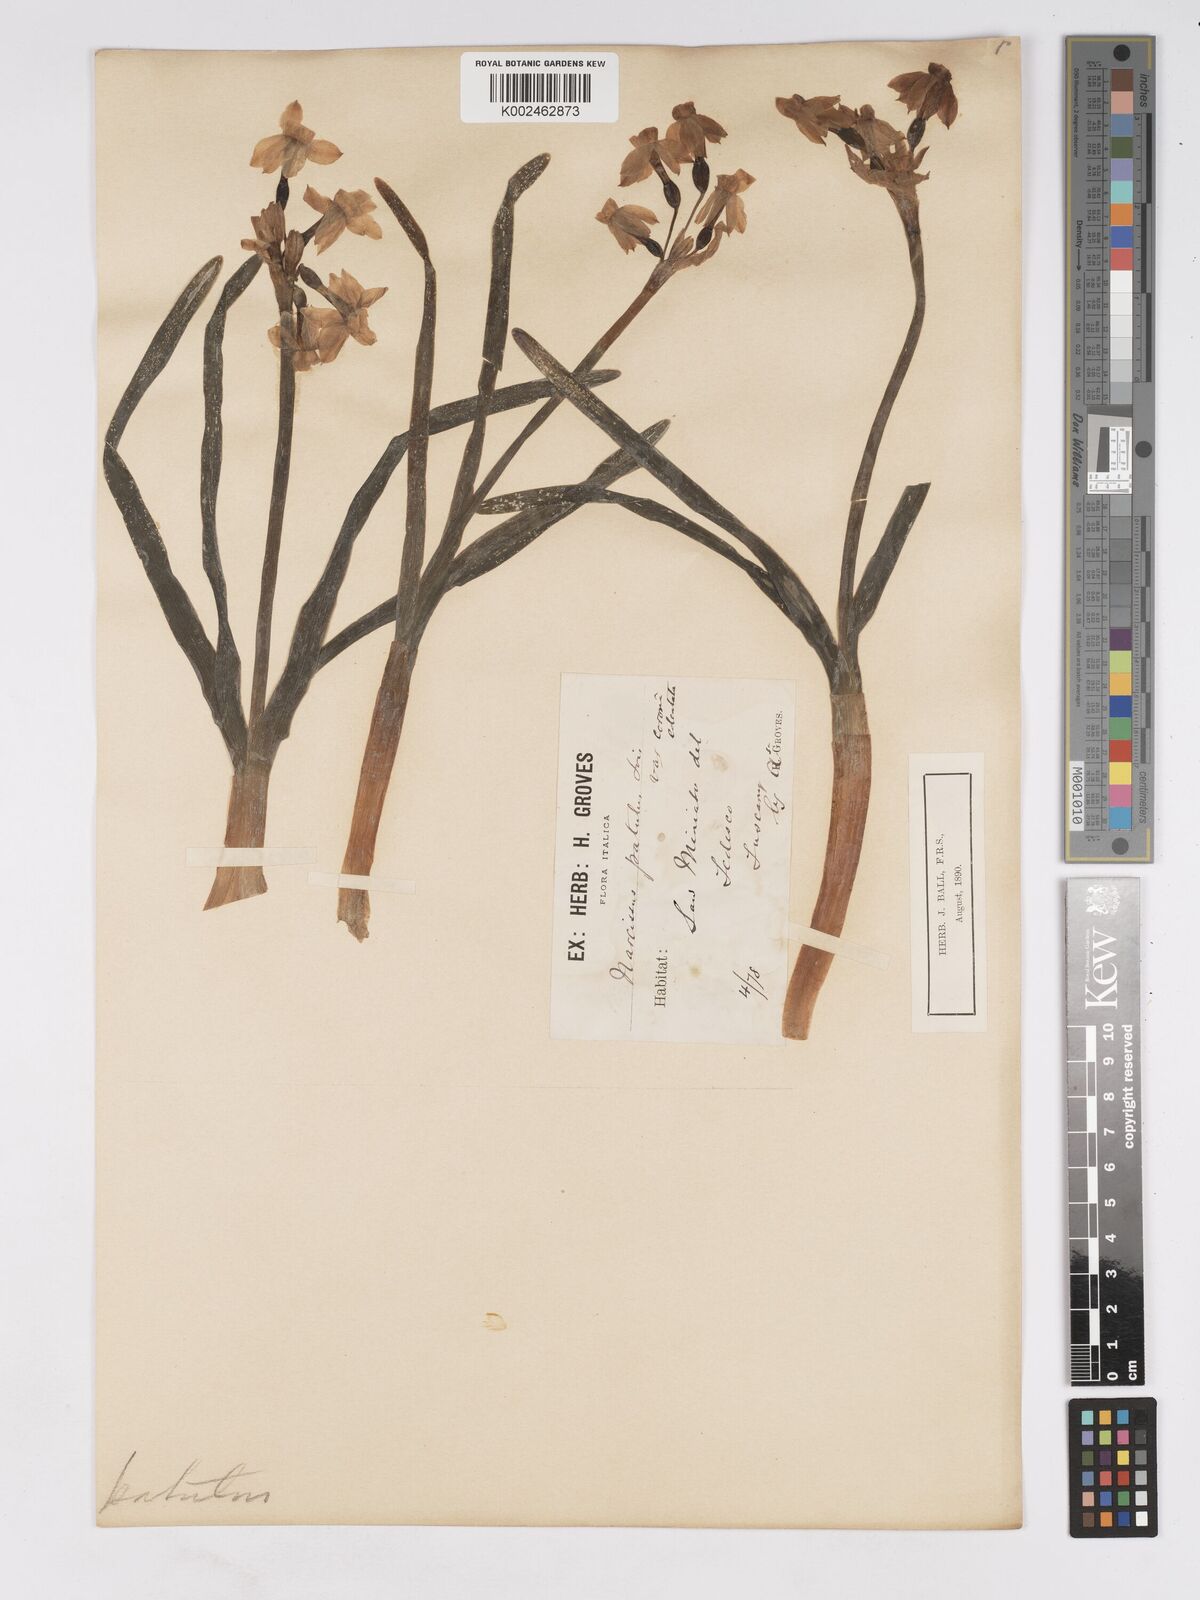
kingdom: Plantae
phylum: Tracheophyta
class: Liliopsida
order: Asparagales
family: Amaryllidaceae
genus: Narcissus
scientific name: Narcissus tazetta
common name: Bunch-flowered daffodil
